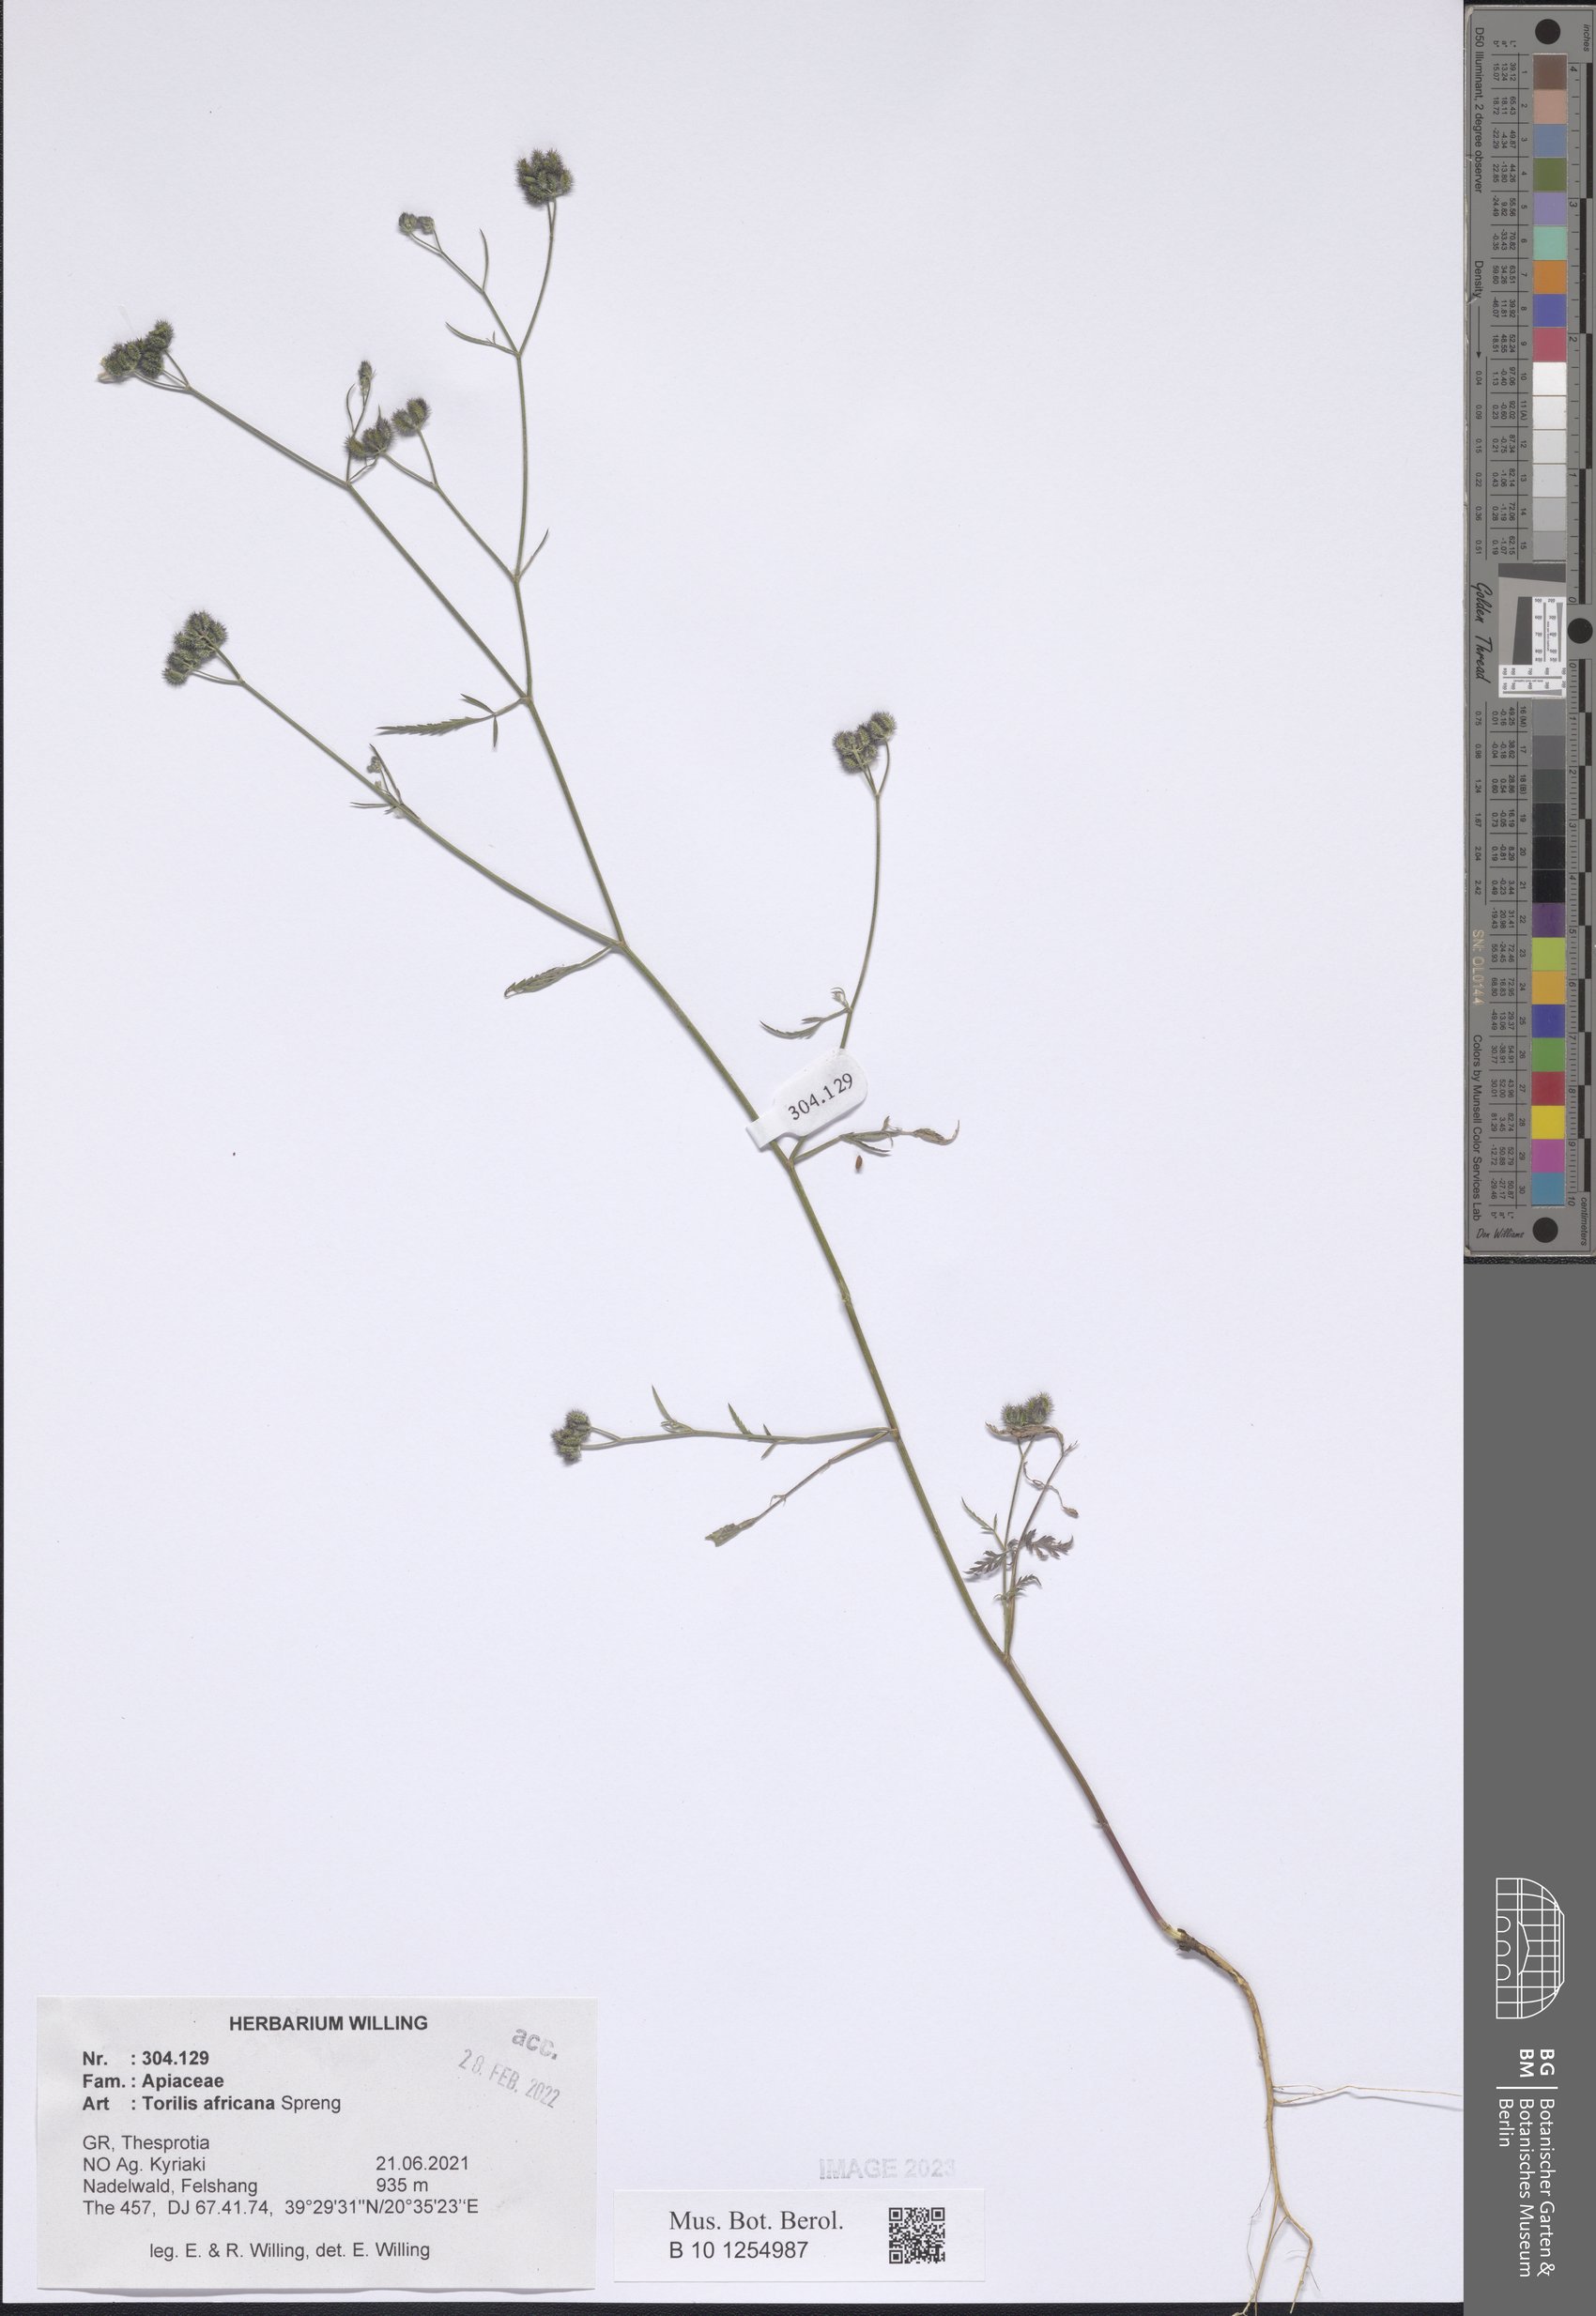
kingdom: Plantae
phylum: Tracheophyta
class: Magnoliopsida
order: Apiales
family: Apiaceae
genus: Torilis
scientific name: Torilis africana
